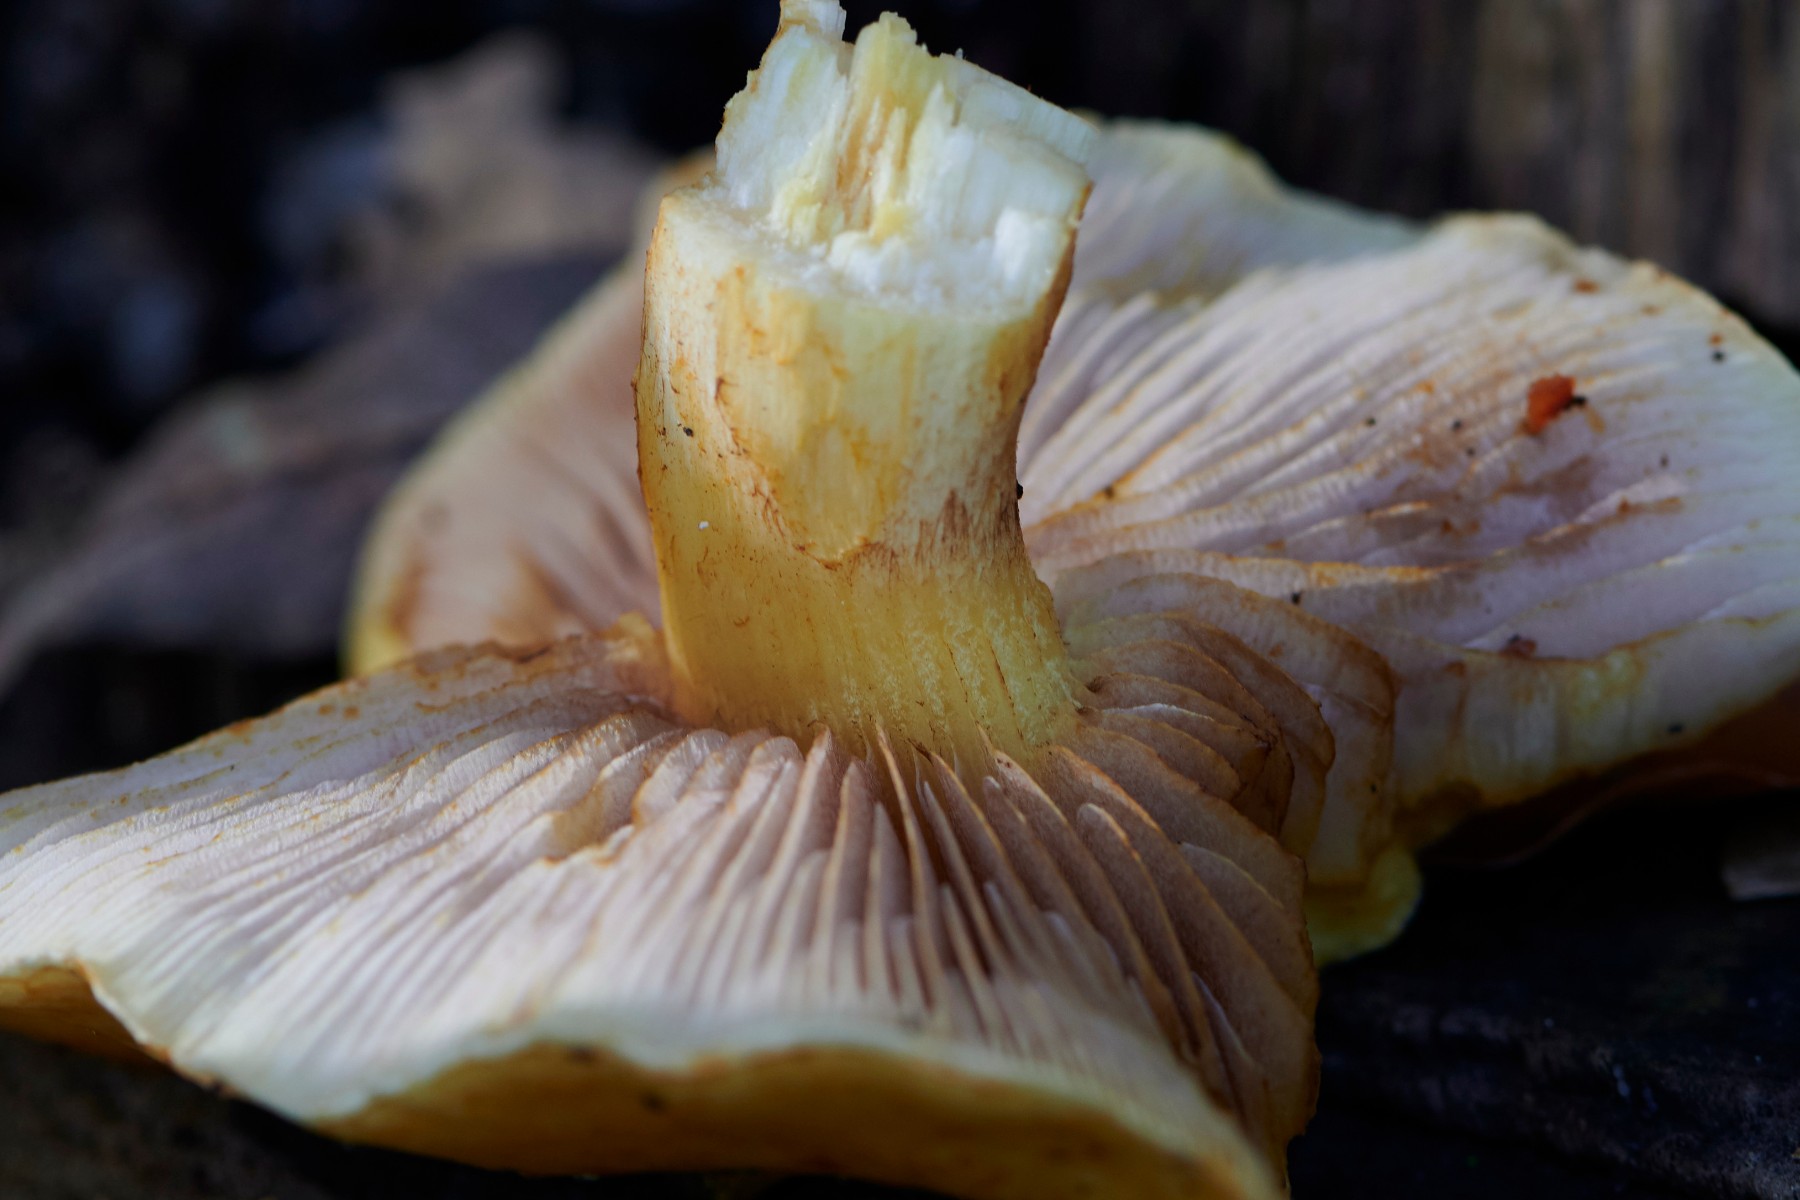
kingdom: Fungi
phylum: Basidiomycota
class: Agaricomycetes
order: Agaricales
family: Strophariaceae
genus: Pholiota
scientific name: Pholiota
